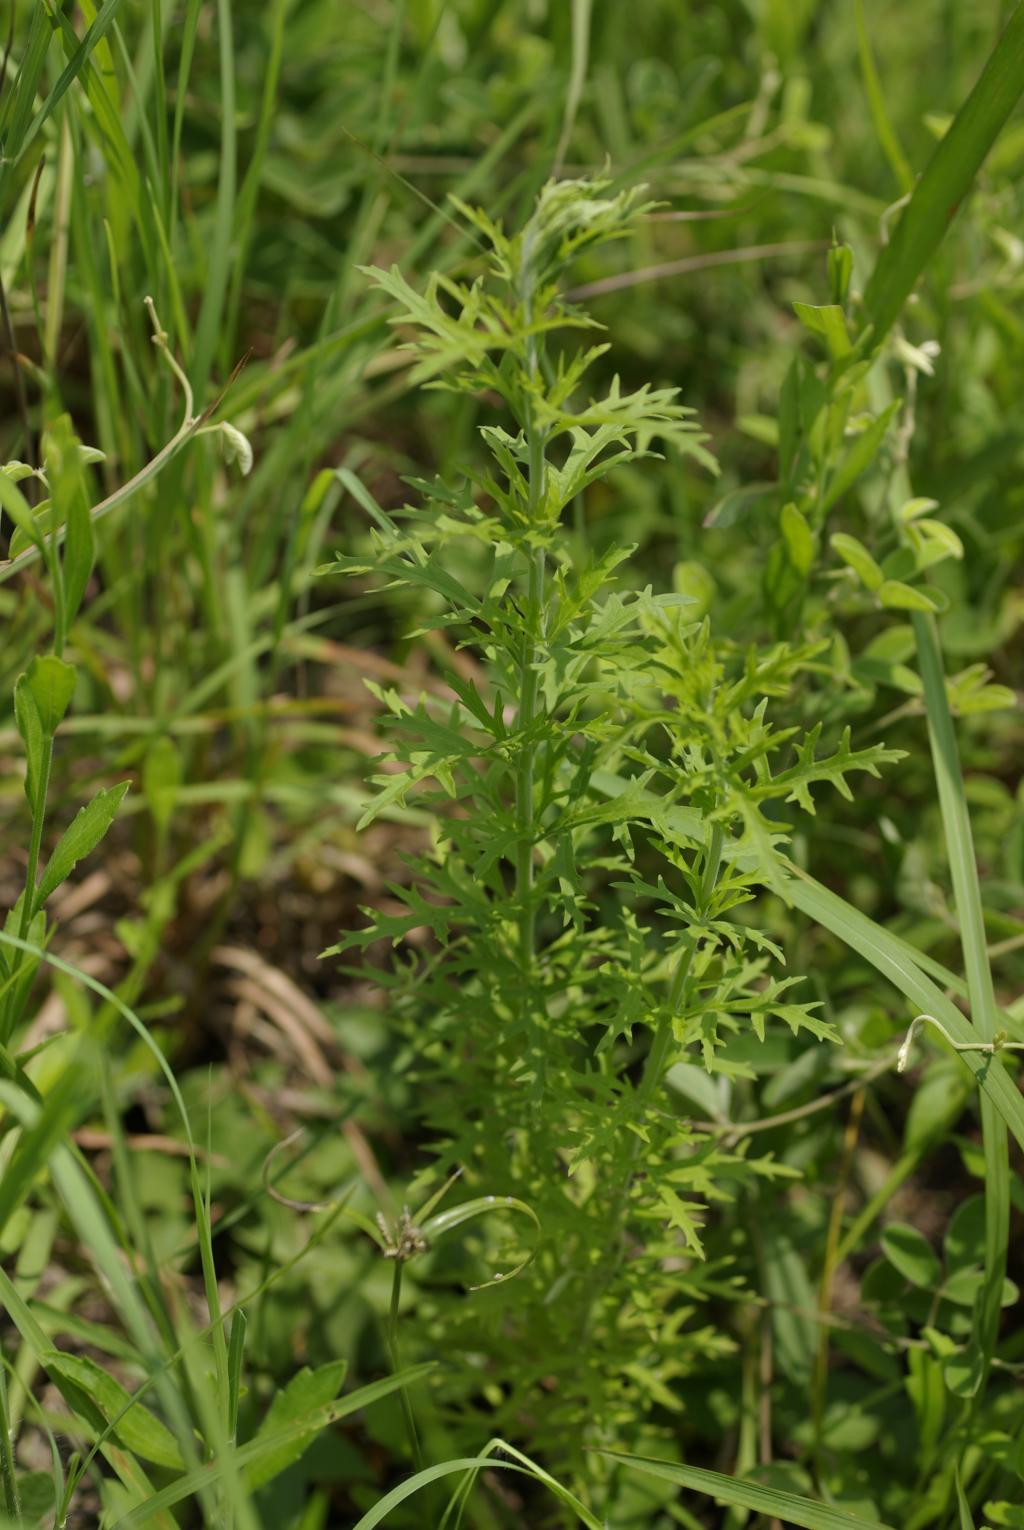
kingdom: Plantae
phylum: Tracheophyta
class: Magnoliopsida
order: Lamiales
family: Orobanchaceae
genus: Siphonostegia
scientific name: Siphonostegia chinensis
